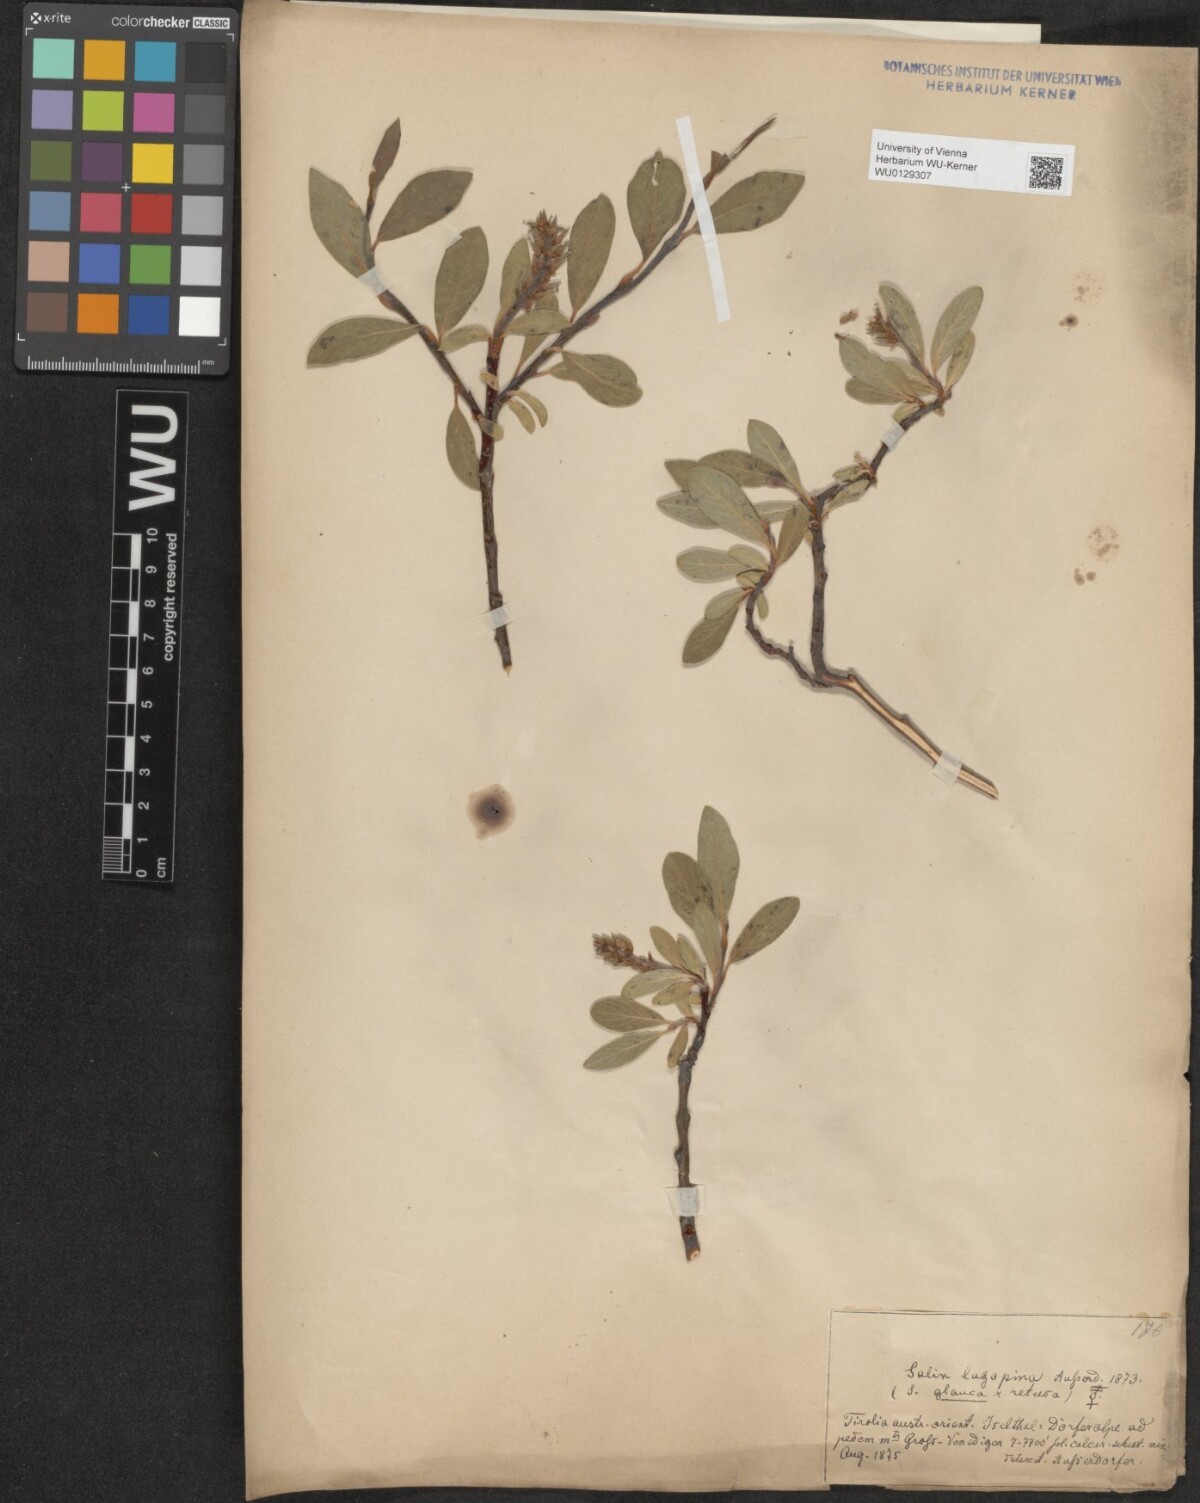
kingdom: Plantae
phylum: Tracheophyta
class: Magnoliopsida
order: Malpighiales
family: Salicaceae
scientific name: Salicaceae
